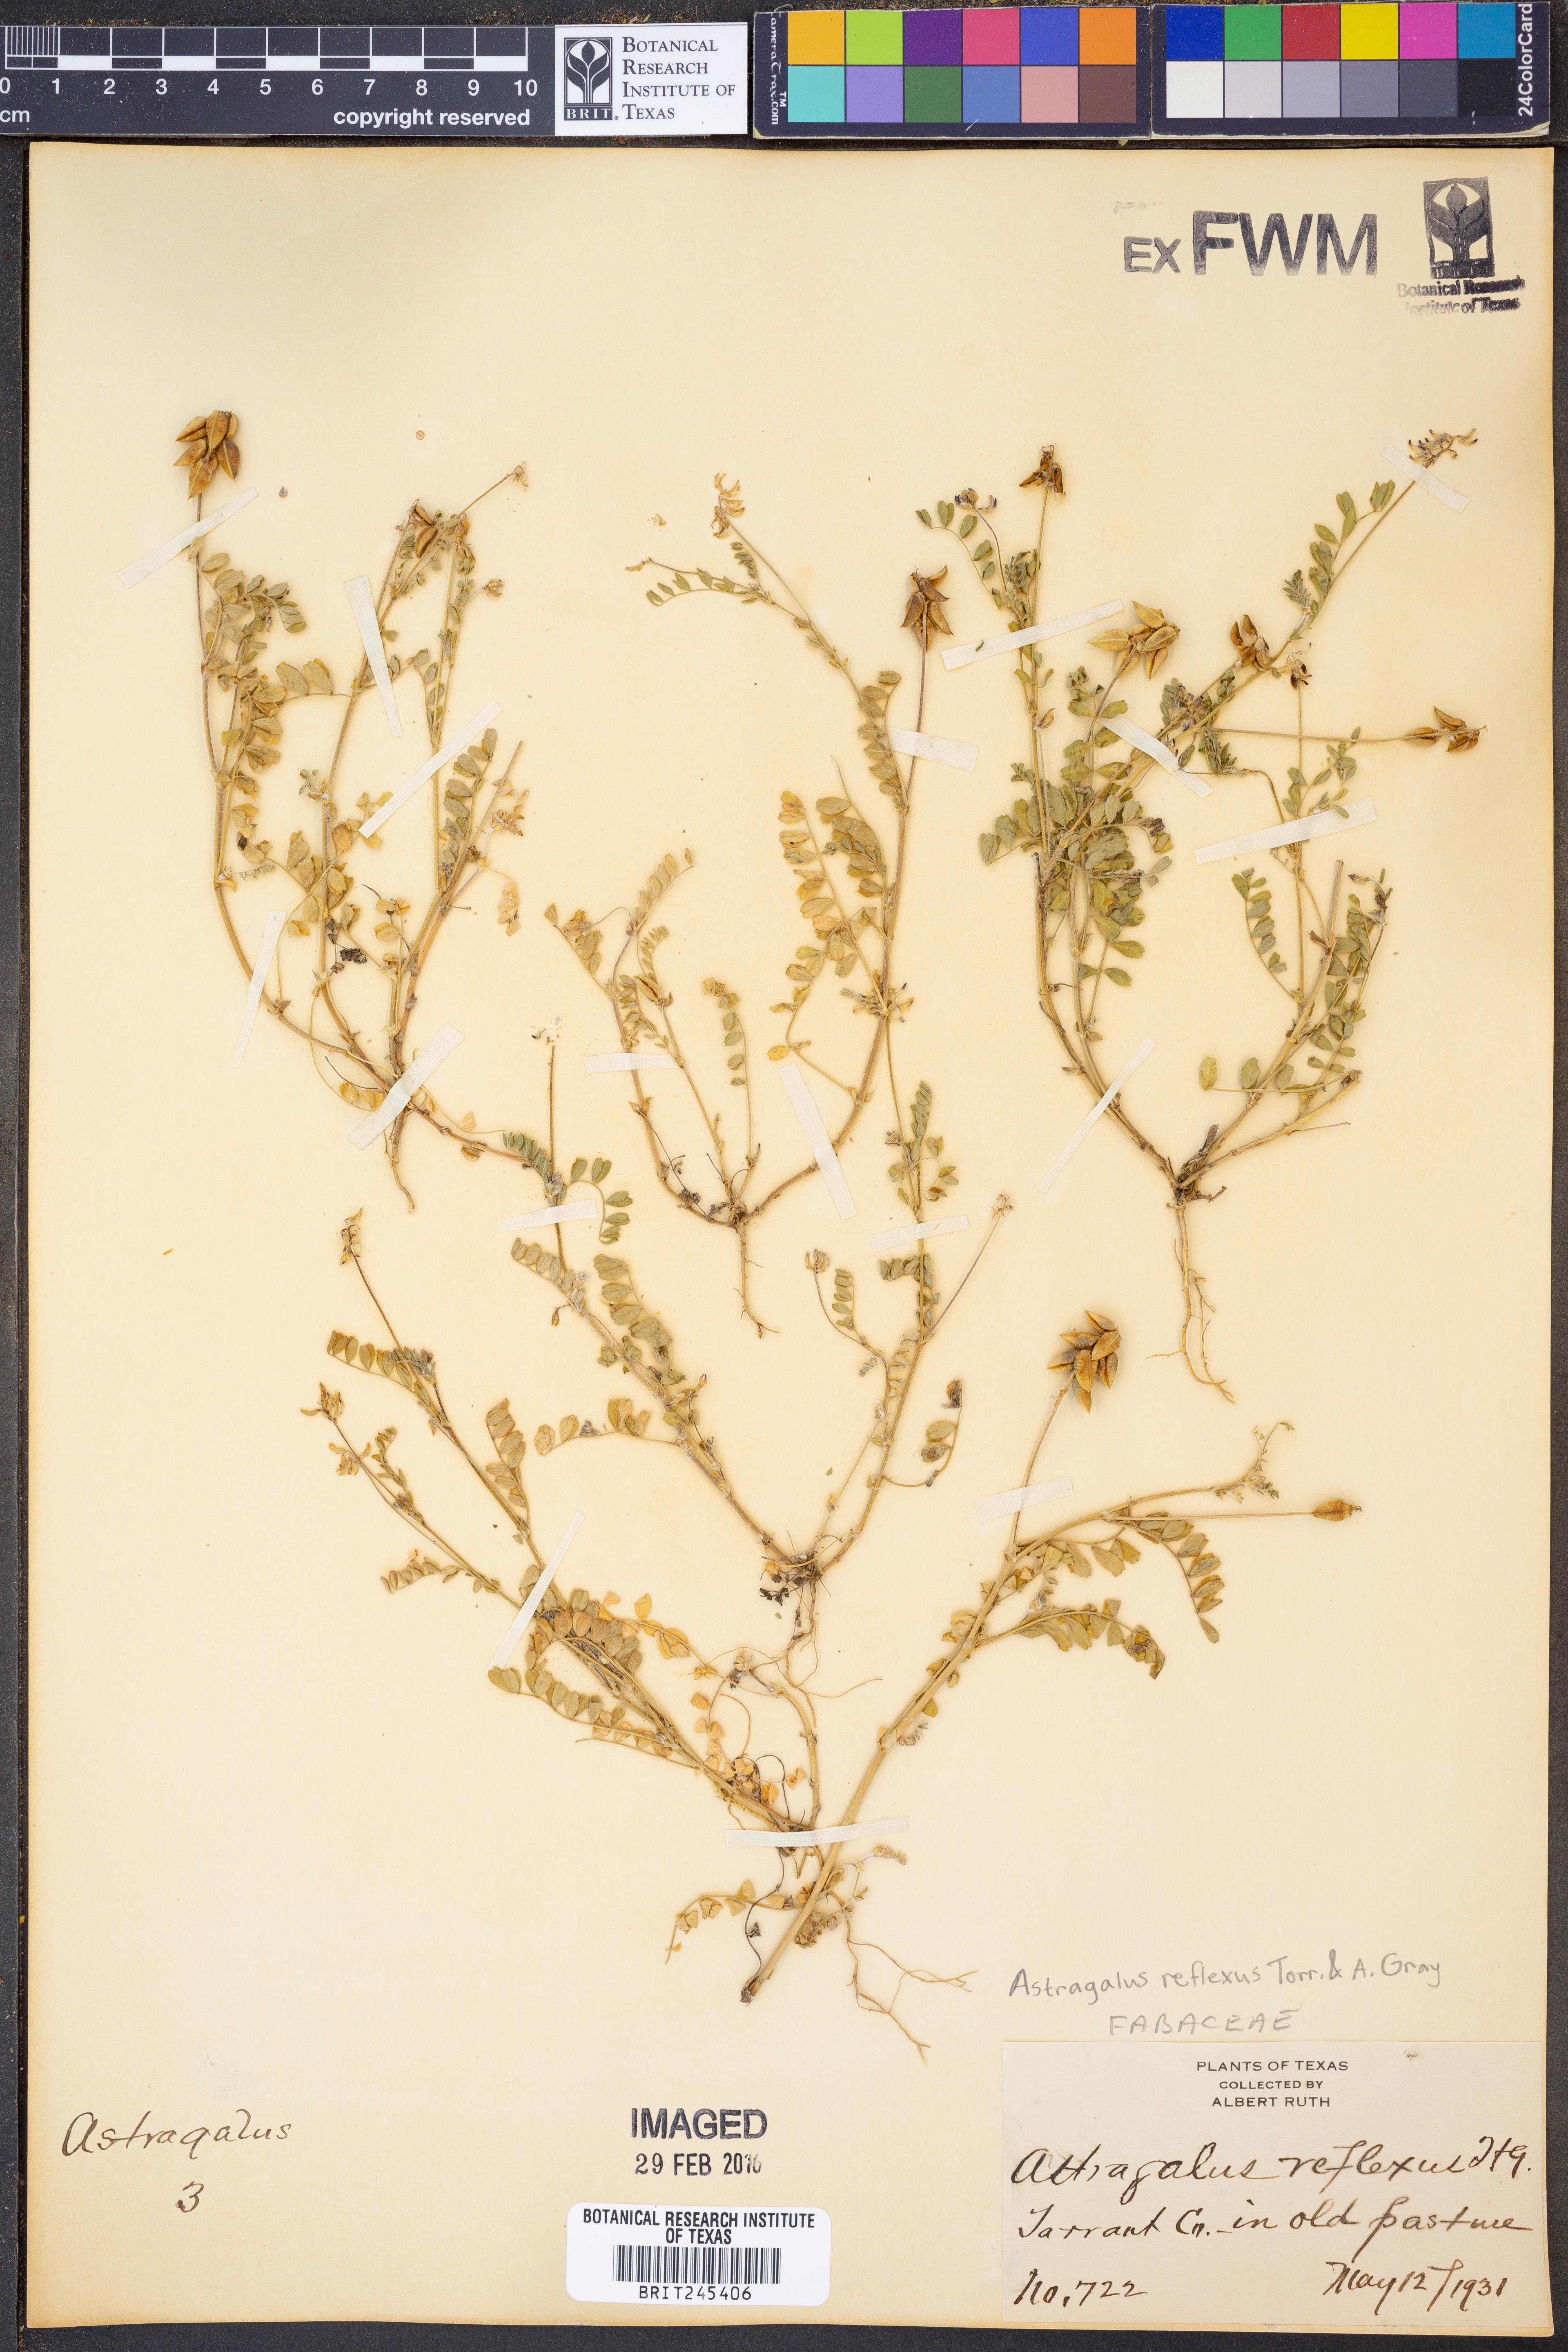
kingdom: Plantae
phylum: Tracheophyta
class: Magnoliopsida
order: Fabales
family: Fabaceae
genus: Astragalus
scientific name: Astragalus reflexus
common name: Texas milk-vetch
